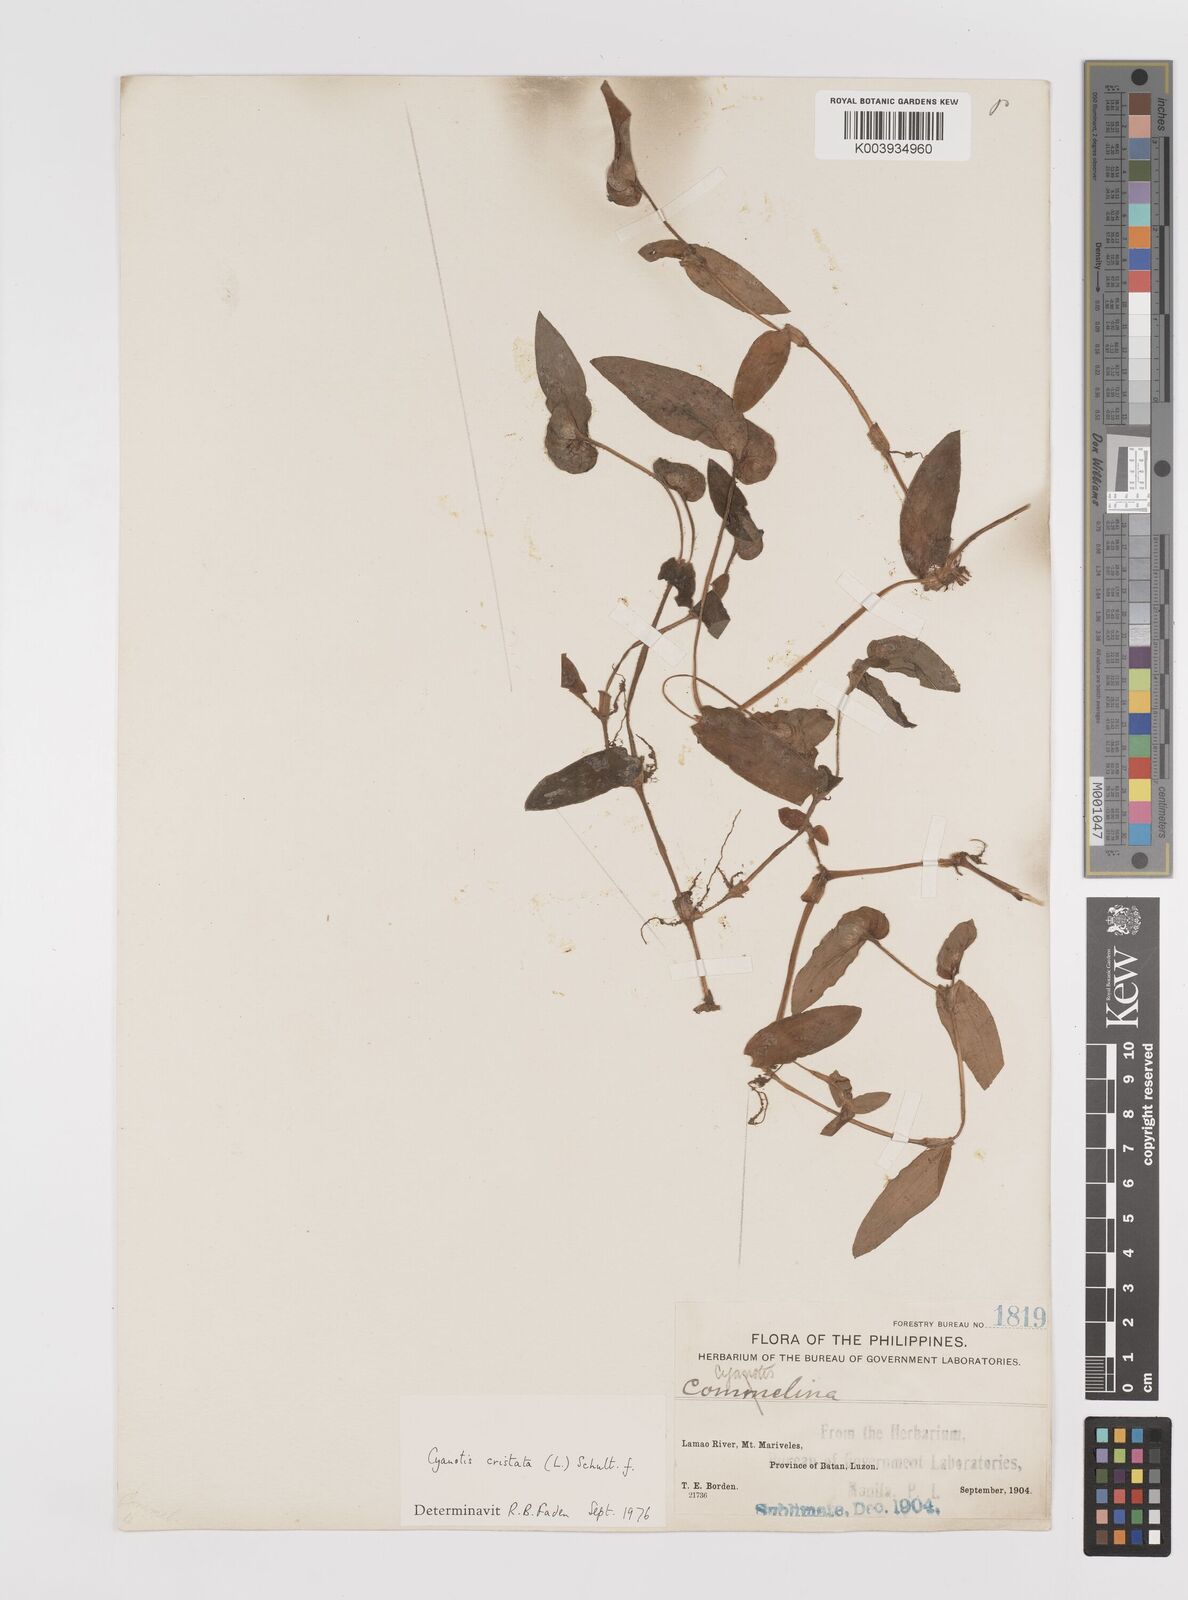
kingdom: Plantae
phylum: Tracheophyta
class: Liliopsida
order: Commelinales
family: Commelinaceae
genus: Cyanotis
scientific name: Cyanotis cristata
